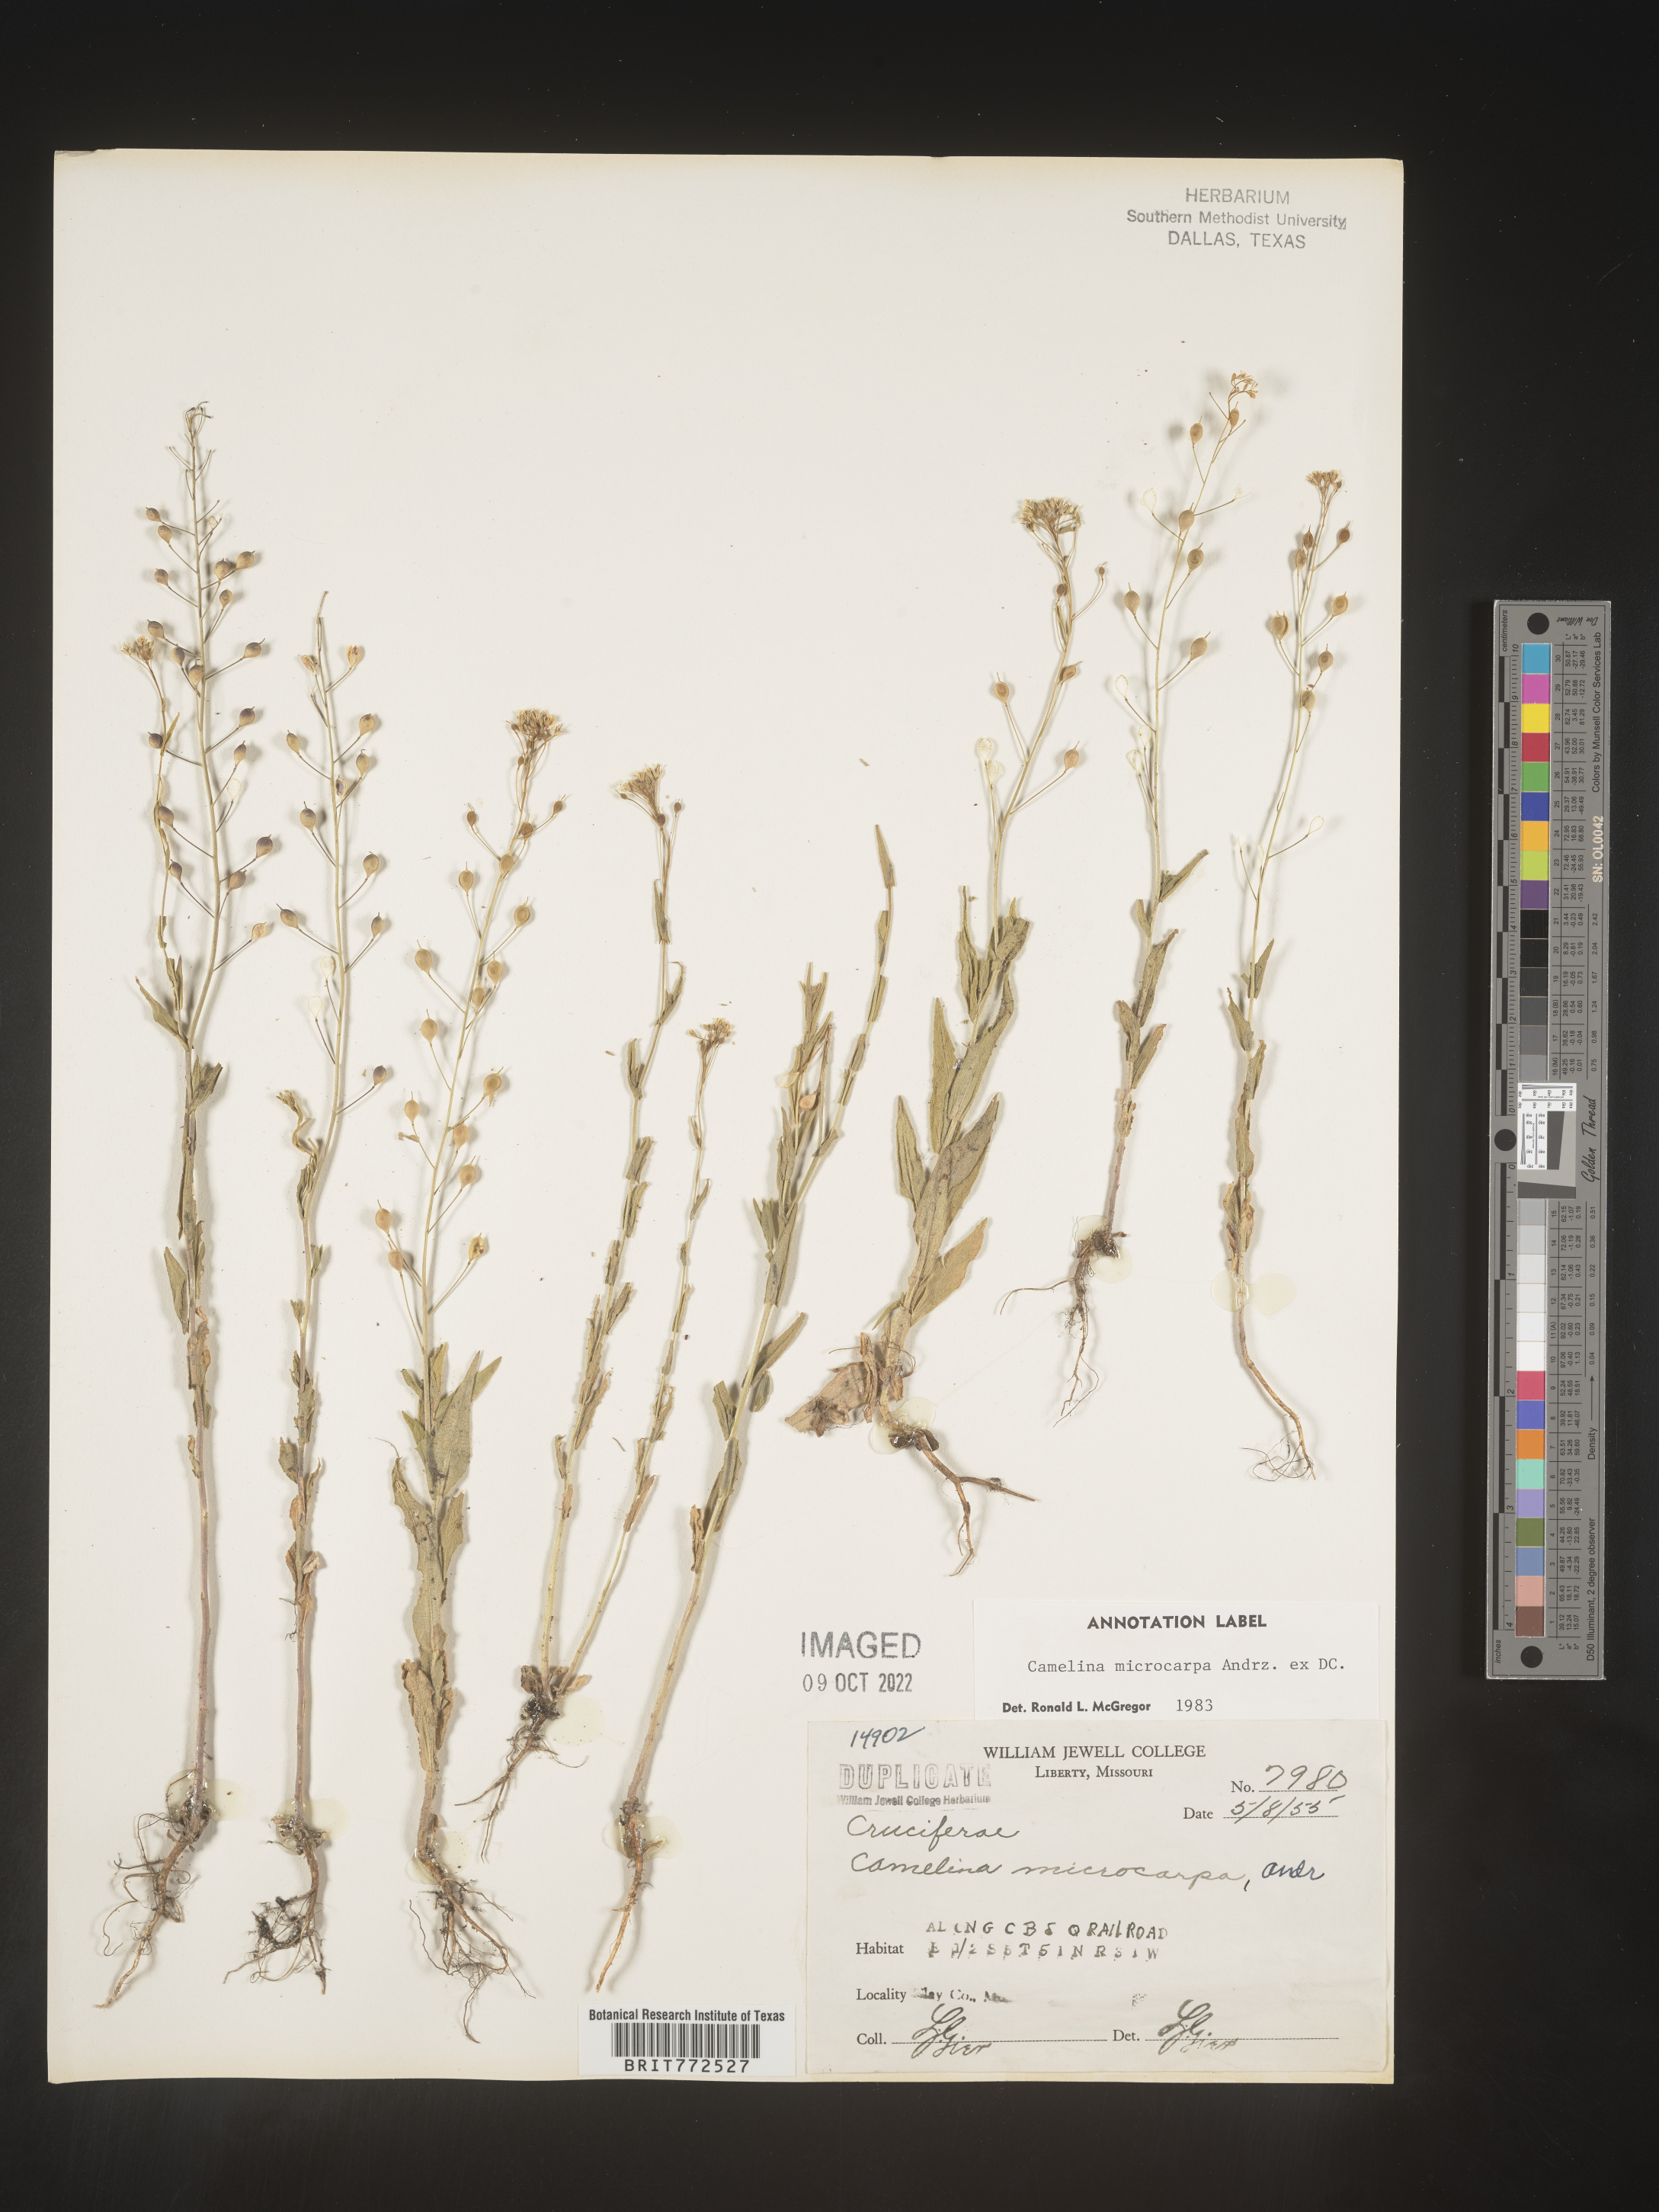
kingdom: Plantae
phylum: Tracheophyta
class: Magnoliopsida
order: Brassicales
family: Brassicaceae
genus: Camelina
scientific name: Camelina microcarpa
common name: Lesser gold-of-pleasure
